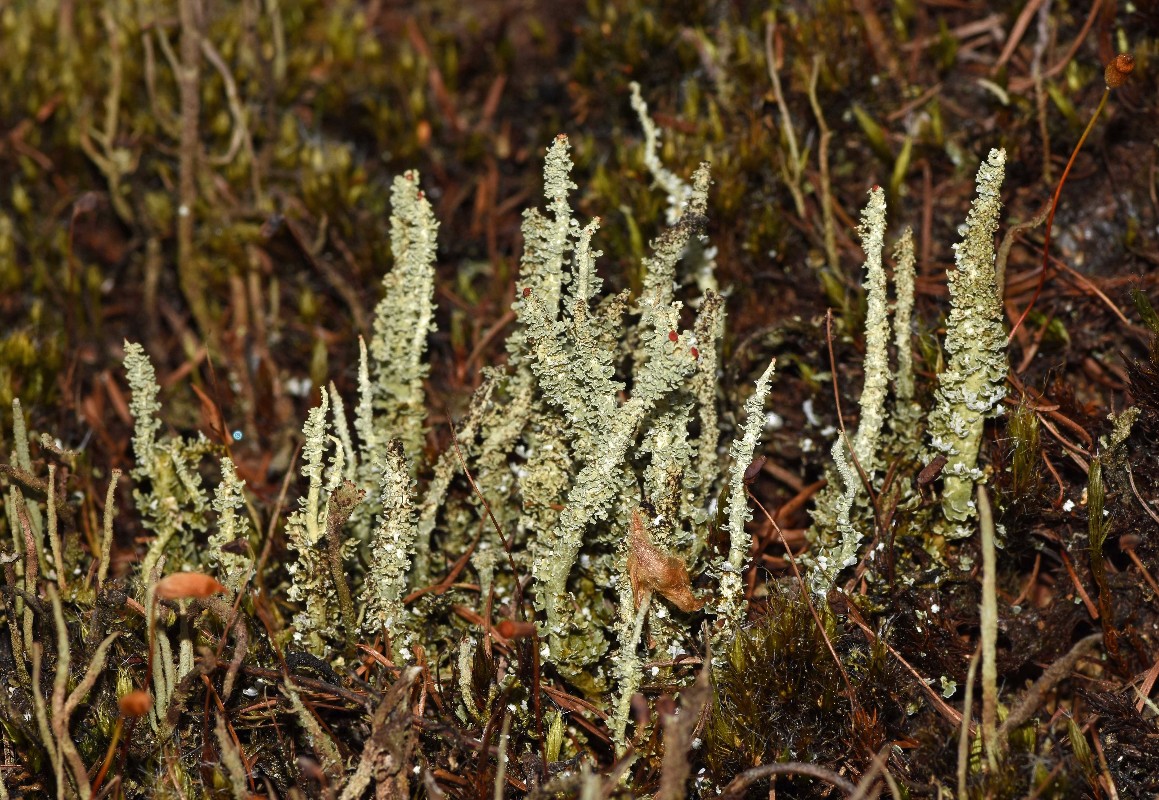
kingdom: Fungi
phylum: Ascomycota
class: Lecanoromycetes
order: Lecanorales
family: Cladoniaceae
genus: Cladonia
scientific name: Cladonia bellidiflora
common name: pragt-bægerlav
